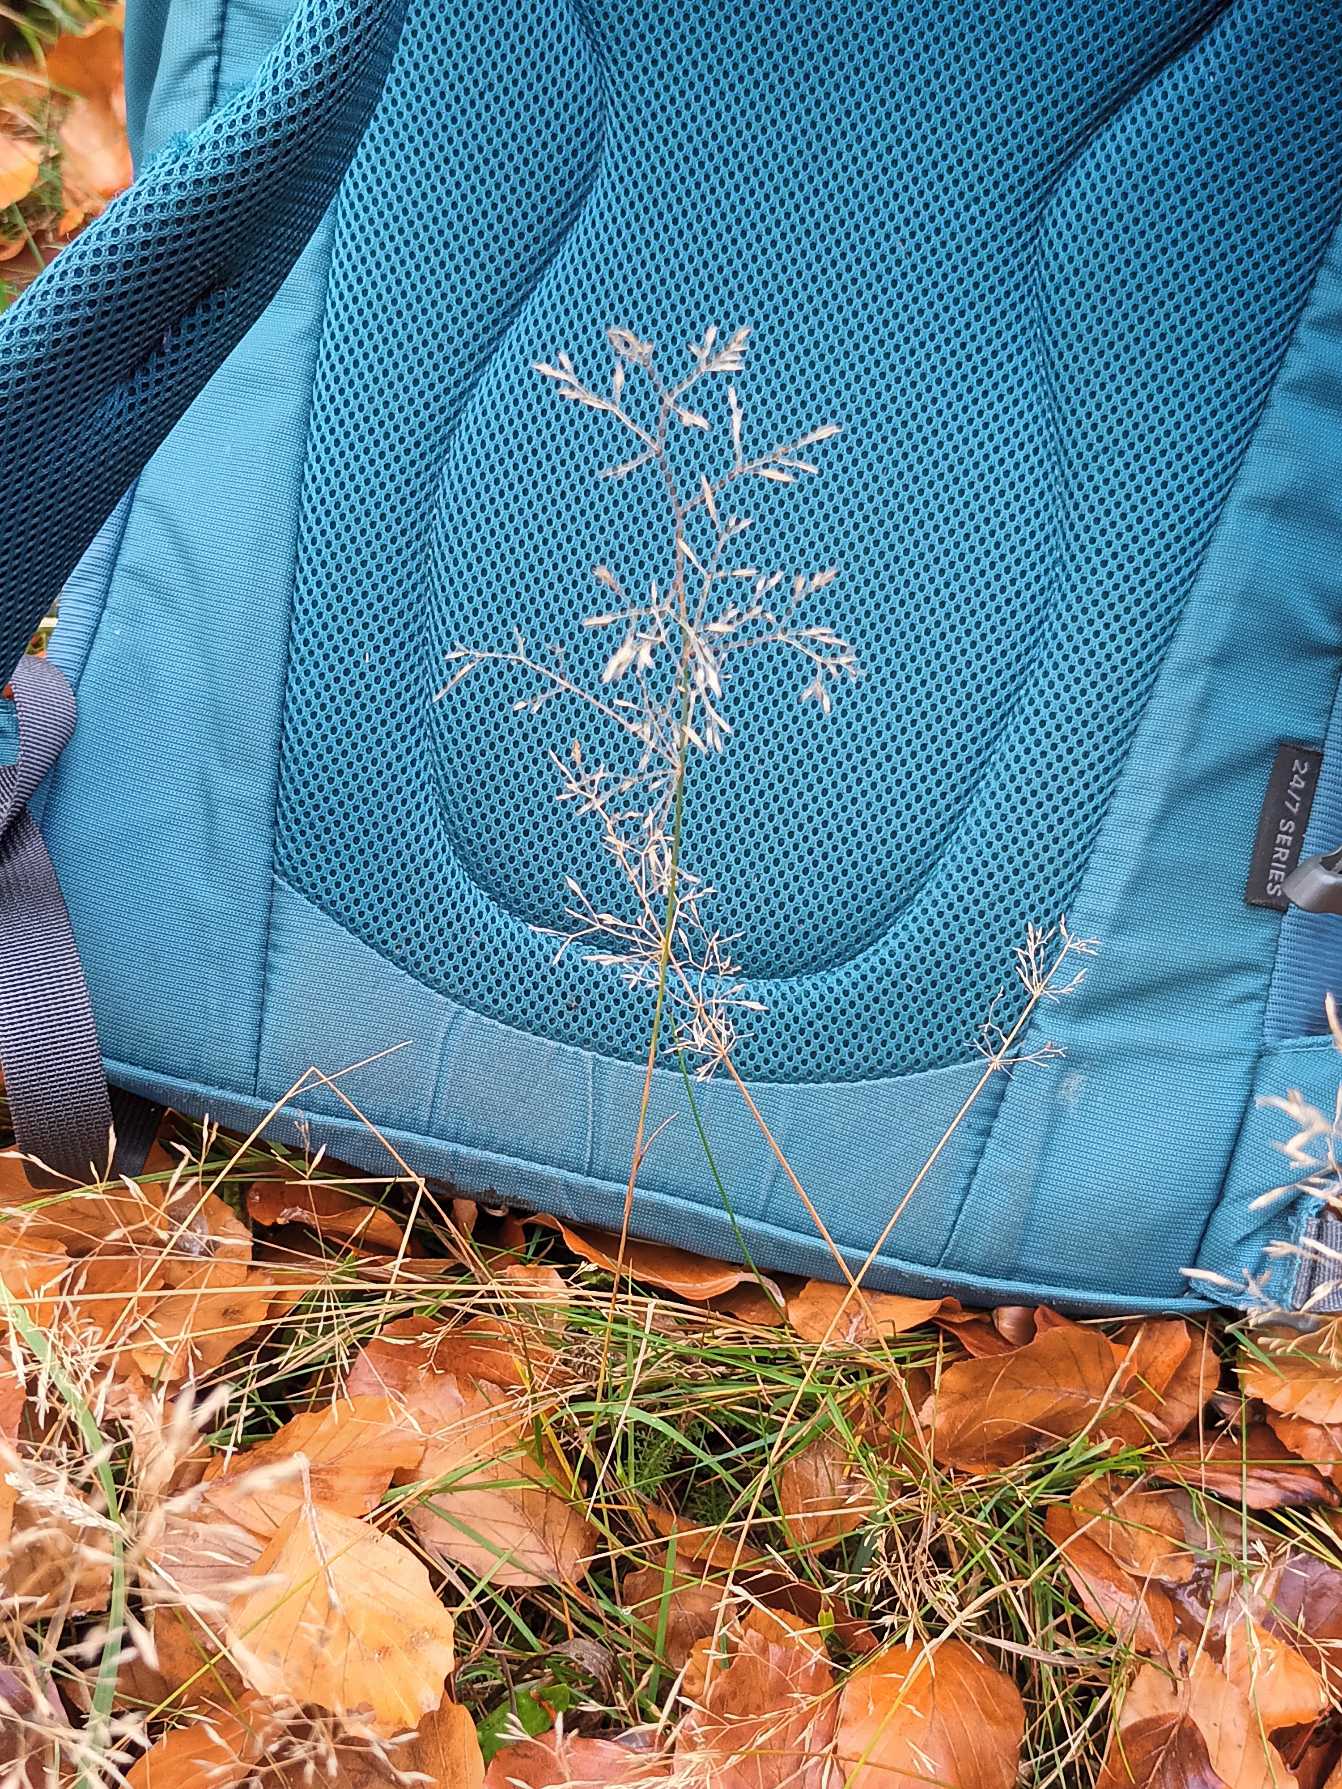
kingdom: Plantae
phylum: Tracheophyta
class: Liliopsida
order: Poales
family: Poaceae
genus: Agrostis
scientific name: Agrostis capillaris
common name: Almindelig hvene
